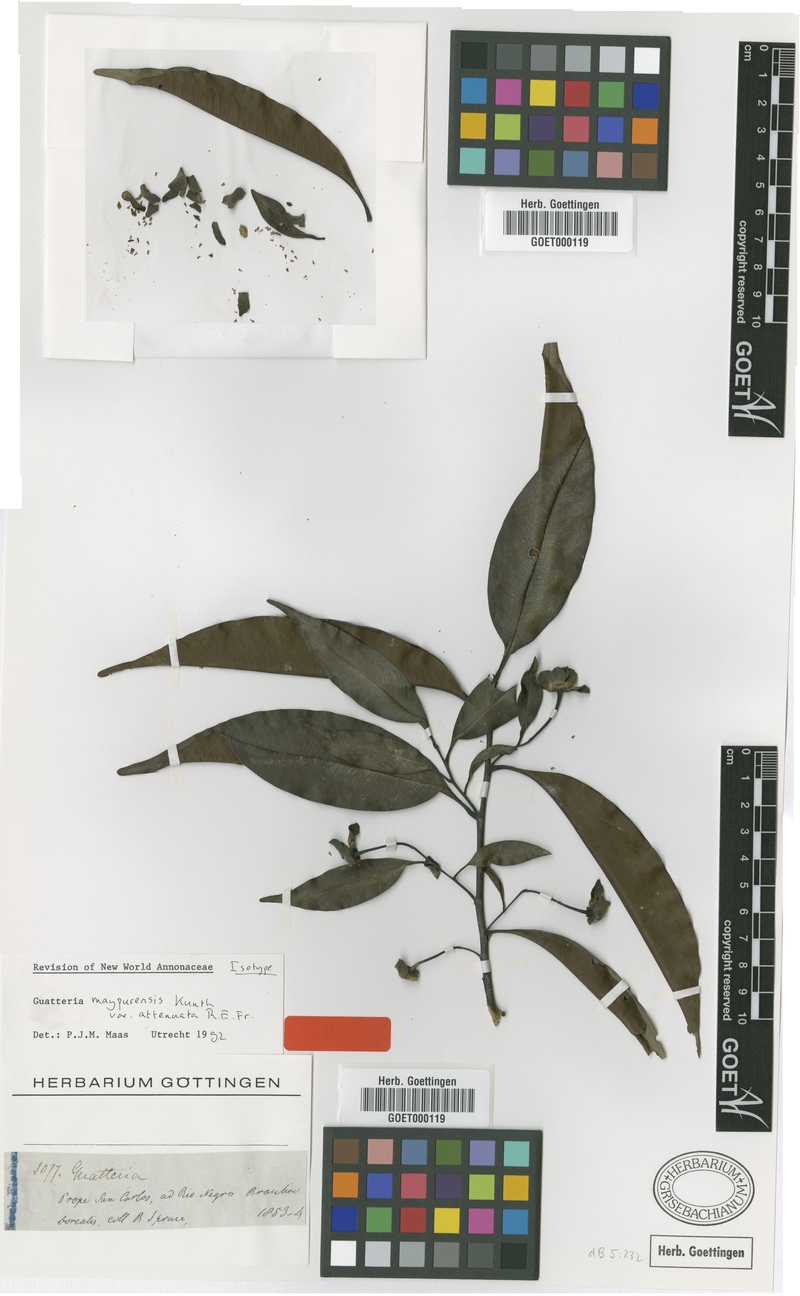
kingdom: Plantae
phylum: Tracheophyta
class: Magnoliopsida
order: Magnoliales
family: Annonaceae
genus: Guatteria
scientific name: Guatteria maypurensis
